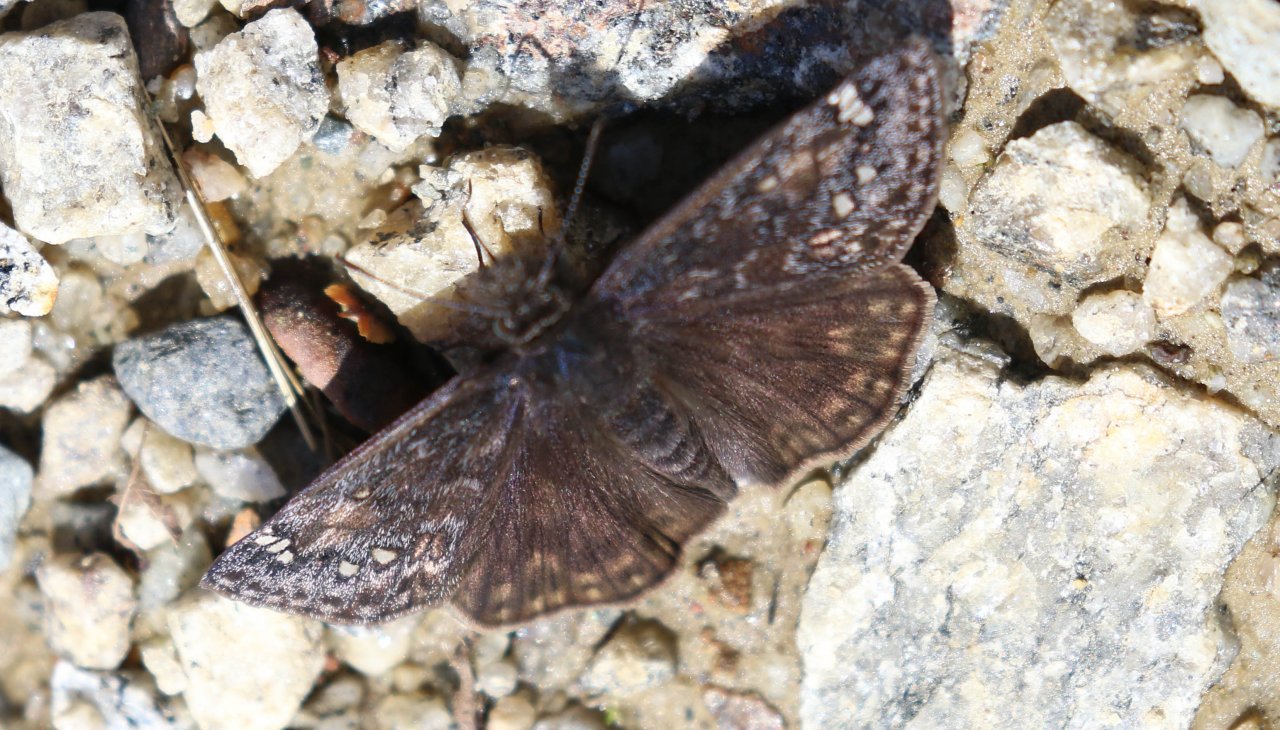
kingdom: Animalia
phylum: Arthropoda
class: Insecta
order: Lepidoptera
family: Hesperiidae
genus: Gesta
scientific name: Gesta
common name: Juvenal's Duskywing
